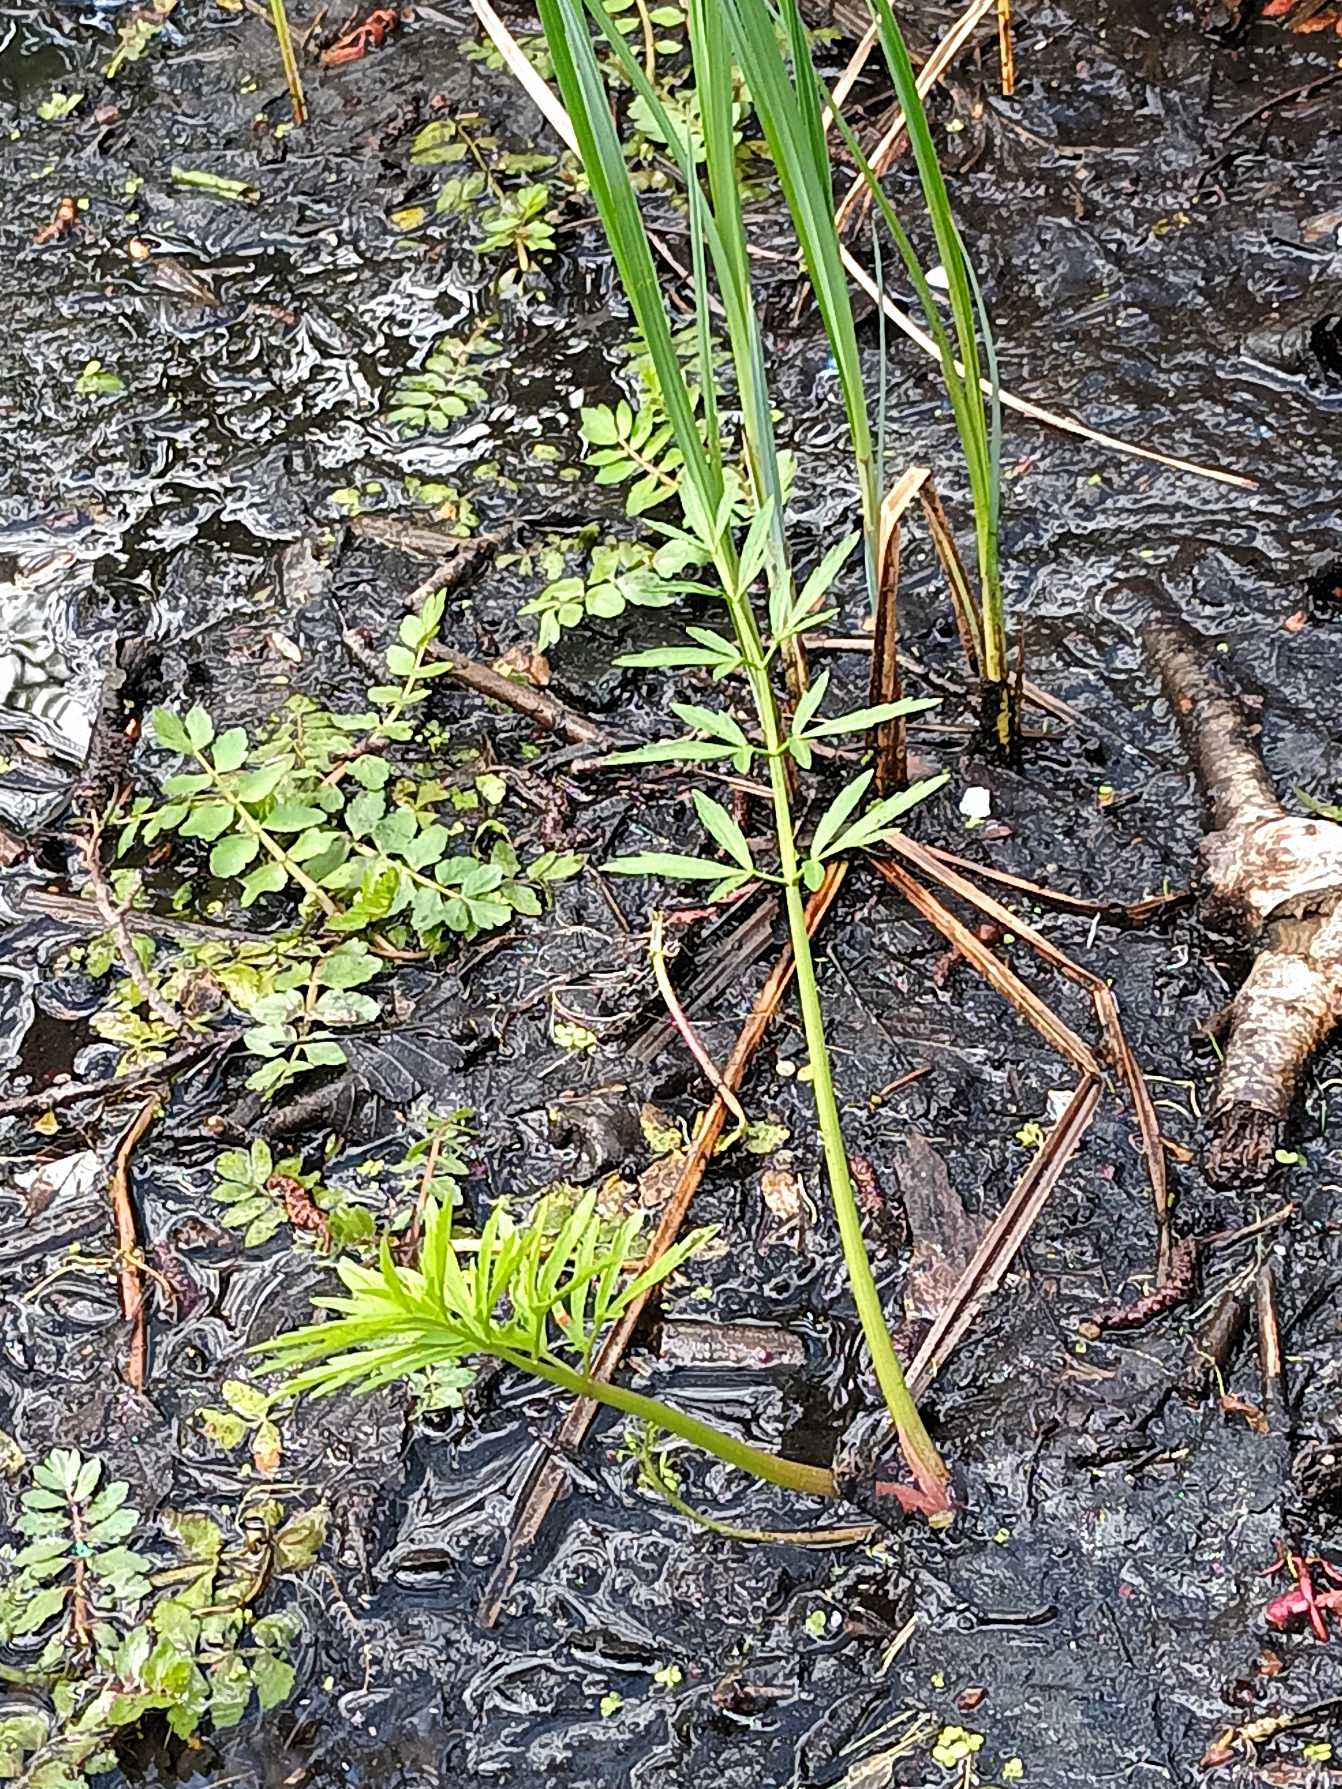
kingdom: Plantae
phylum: Tracheophyta
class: Magnoliopsida
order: Apiales
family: Apiaceae
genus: Cicuta
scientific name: Cicuta virosa
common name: Gifttyde
